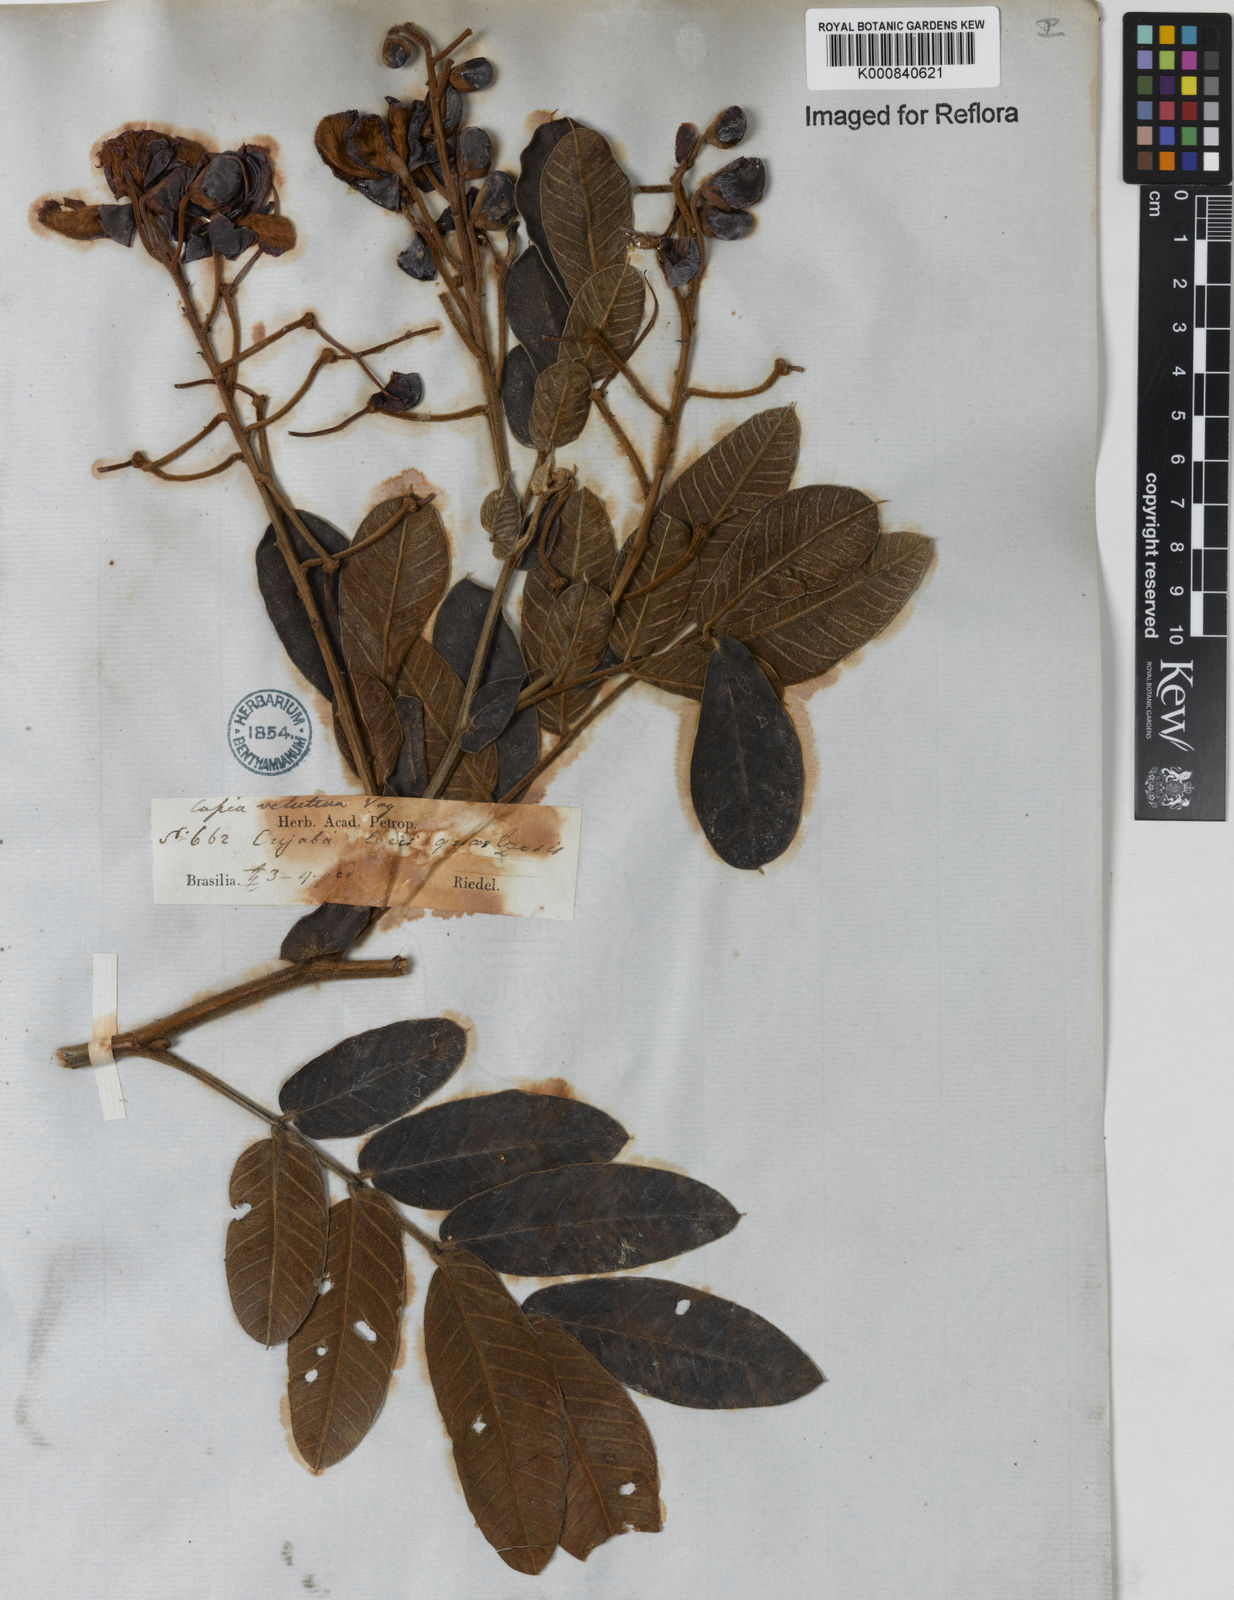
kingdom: Plantae
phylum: Tracheophyta
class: Magnoliopsida
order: Fabales
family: Fabaceae
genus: Senna
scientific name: Senna velutina
